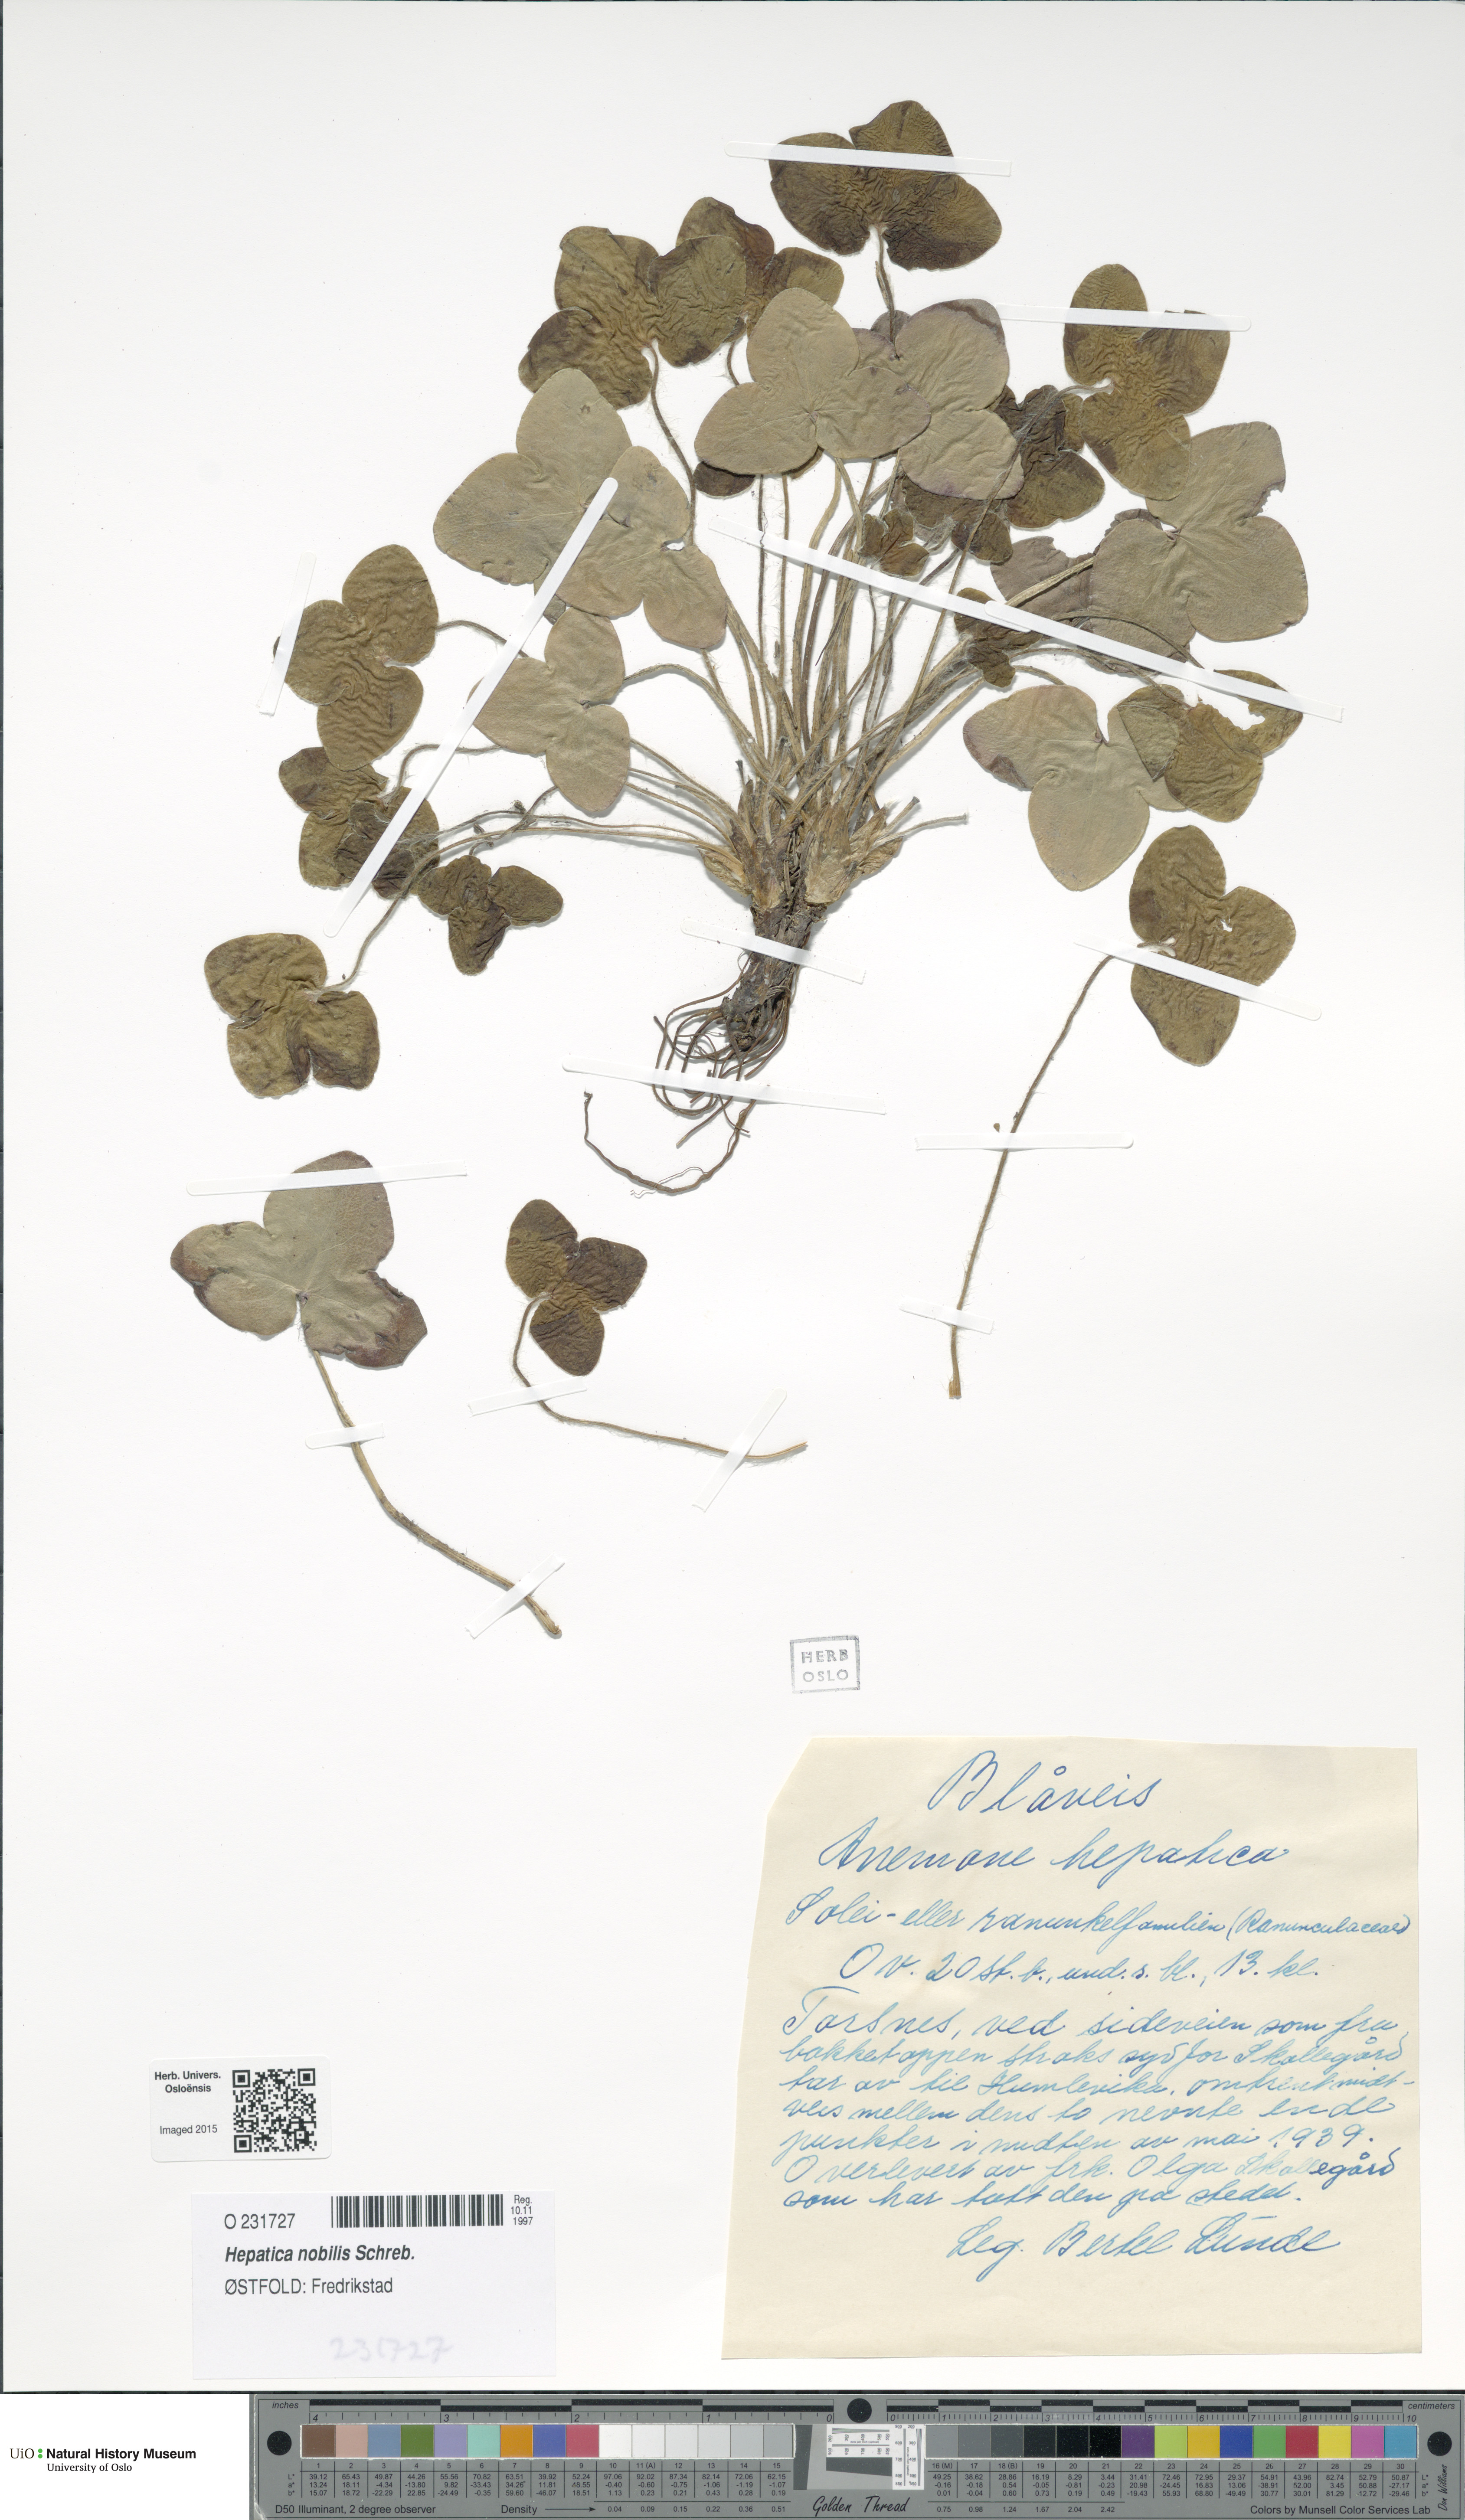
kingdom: Plantae
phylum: Tracheophyta
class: Magnoliopsida
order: Ranunculales
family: Ranunculaceae
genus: Hepatica
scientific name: Hepatica nobilis
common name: Liverleaf
